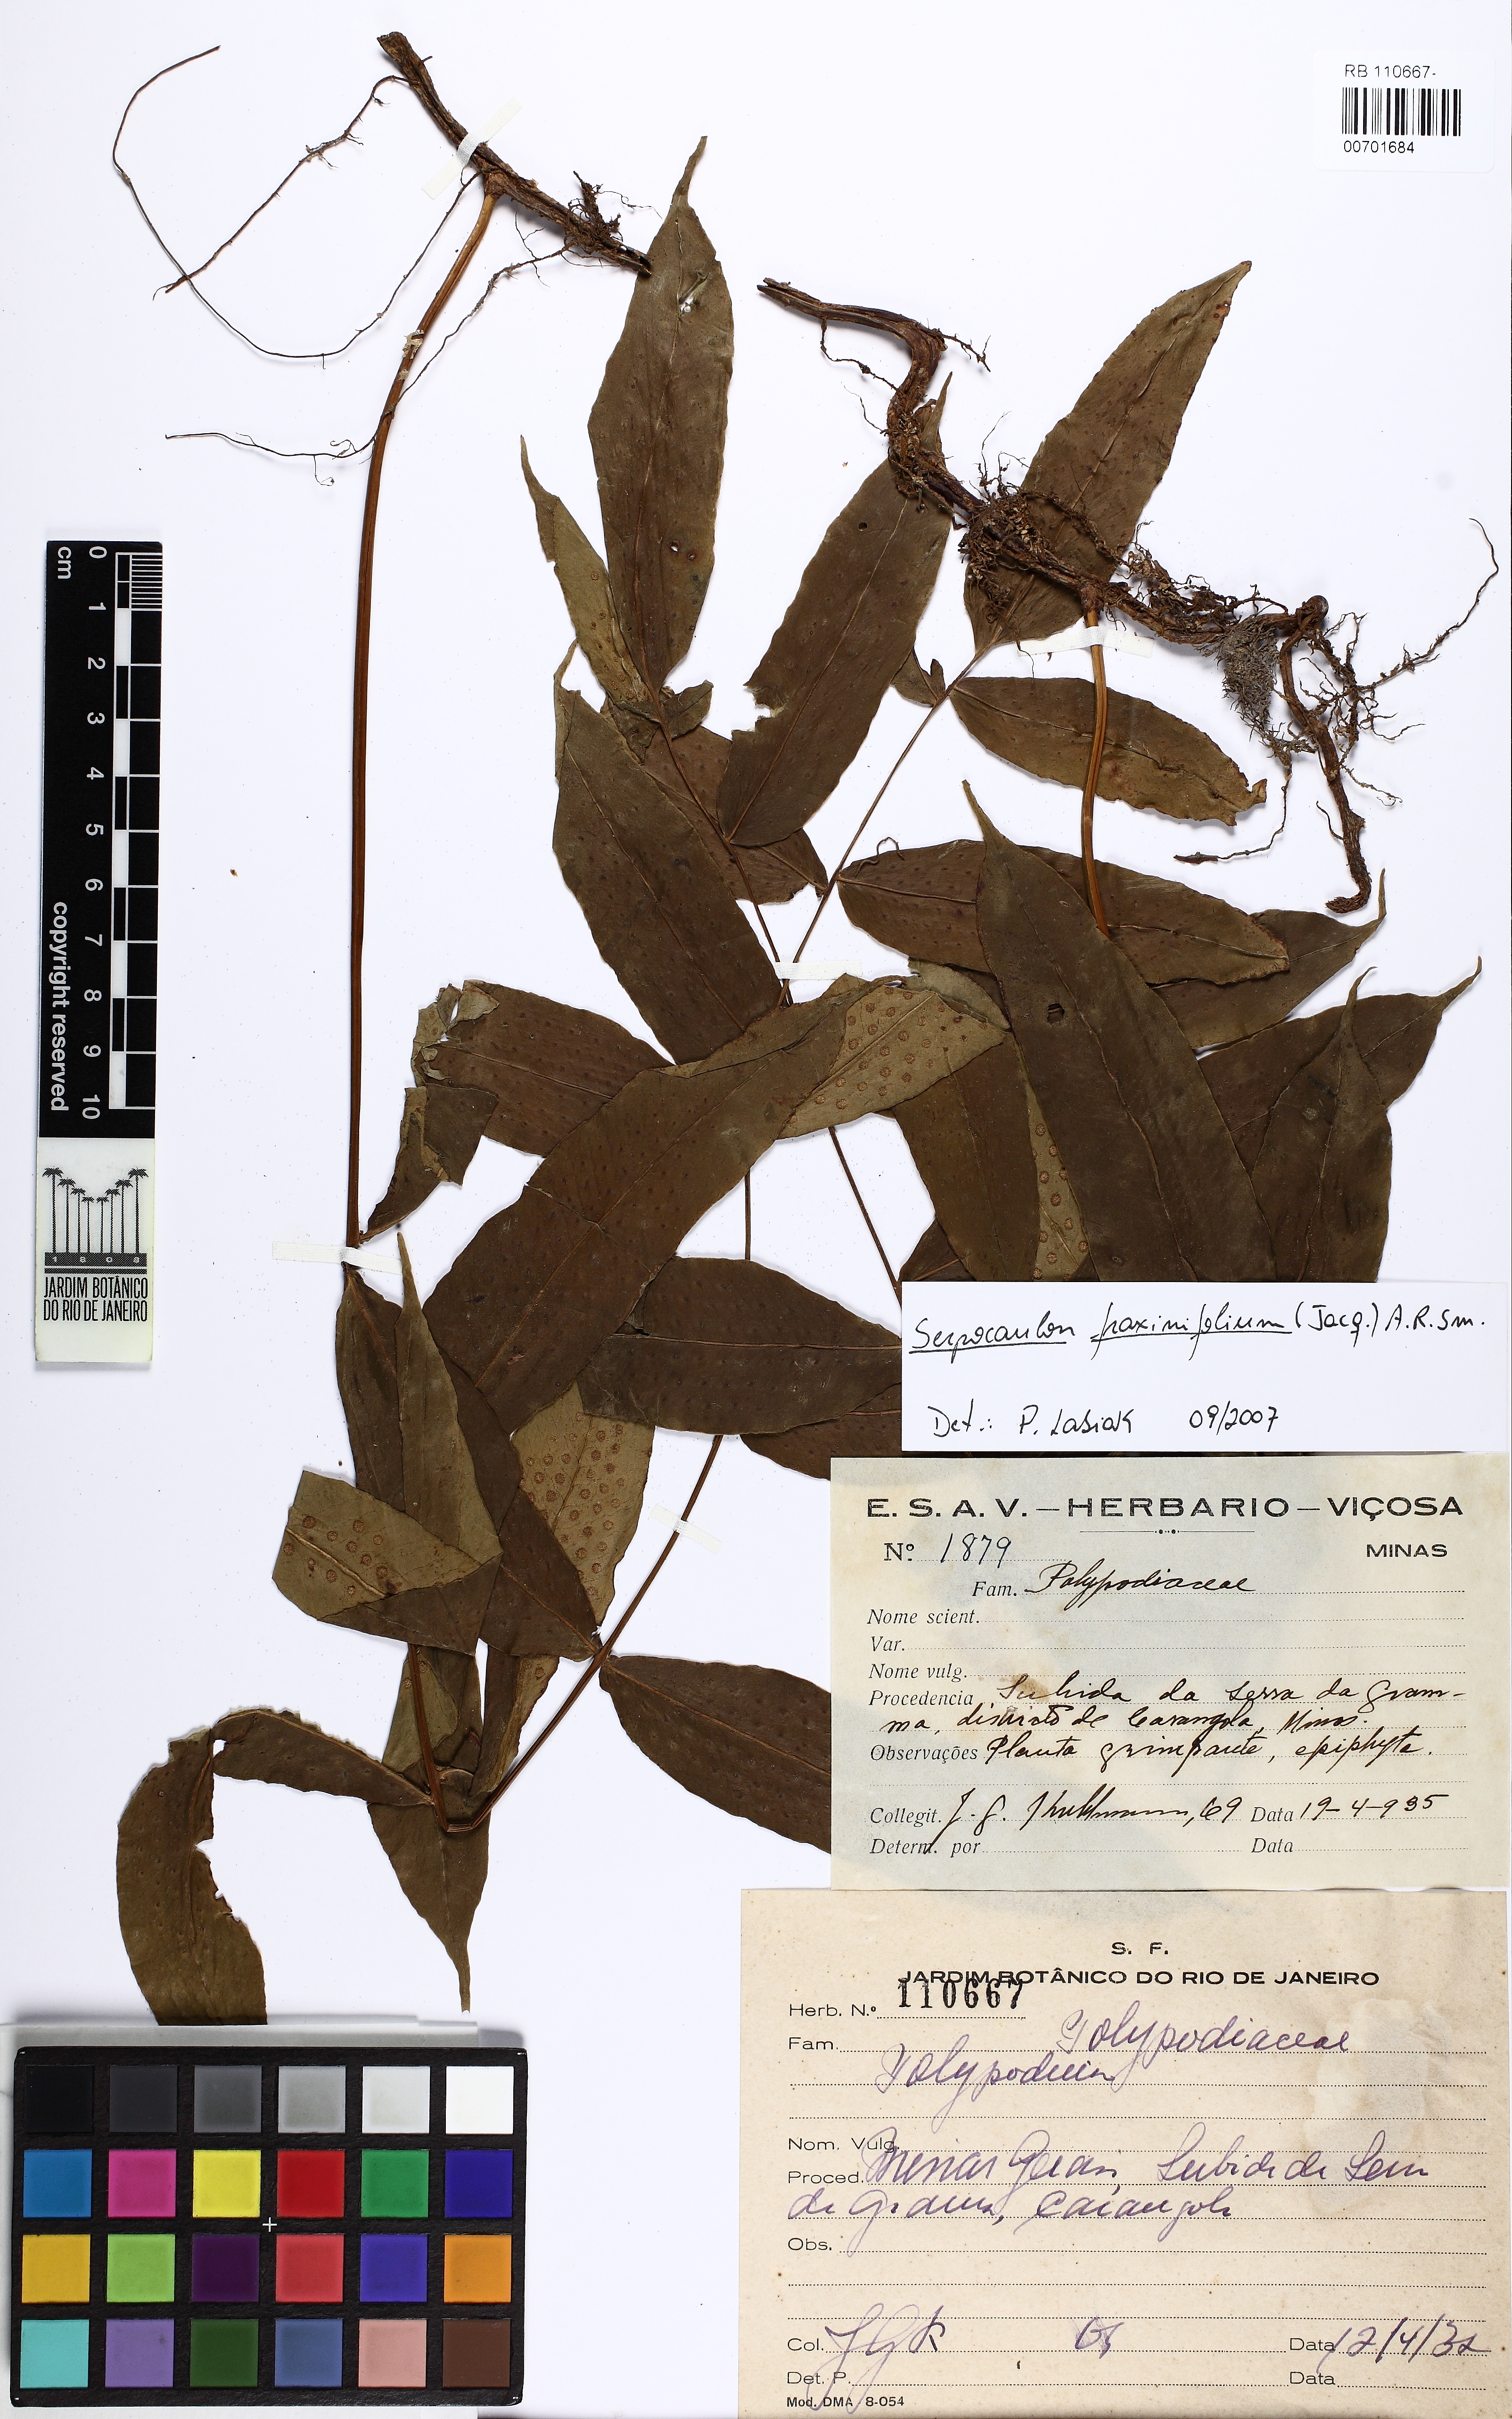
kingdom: Plantae
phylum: Tracheophyta
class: Polypodiopsida
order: Polypodiales
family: Polypodiaceae
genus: Serpocaulon
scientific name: Serpocaulon fraxinifolium
